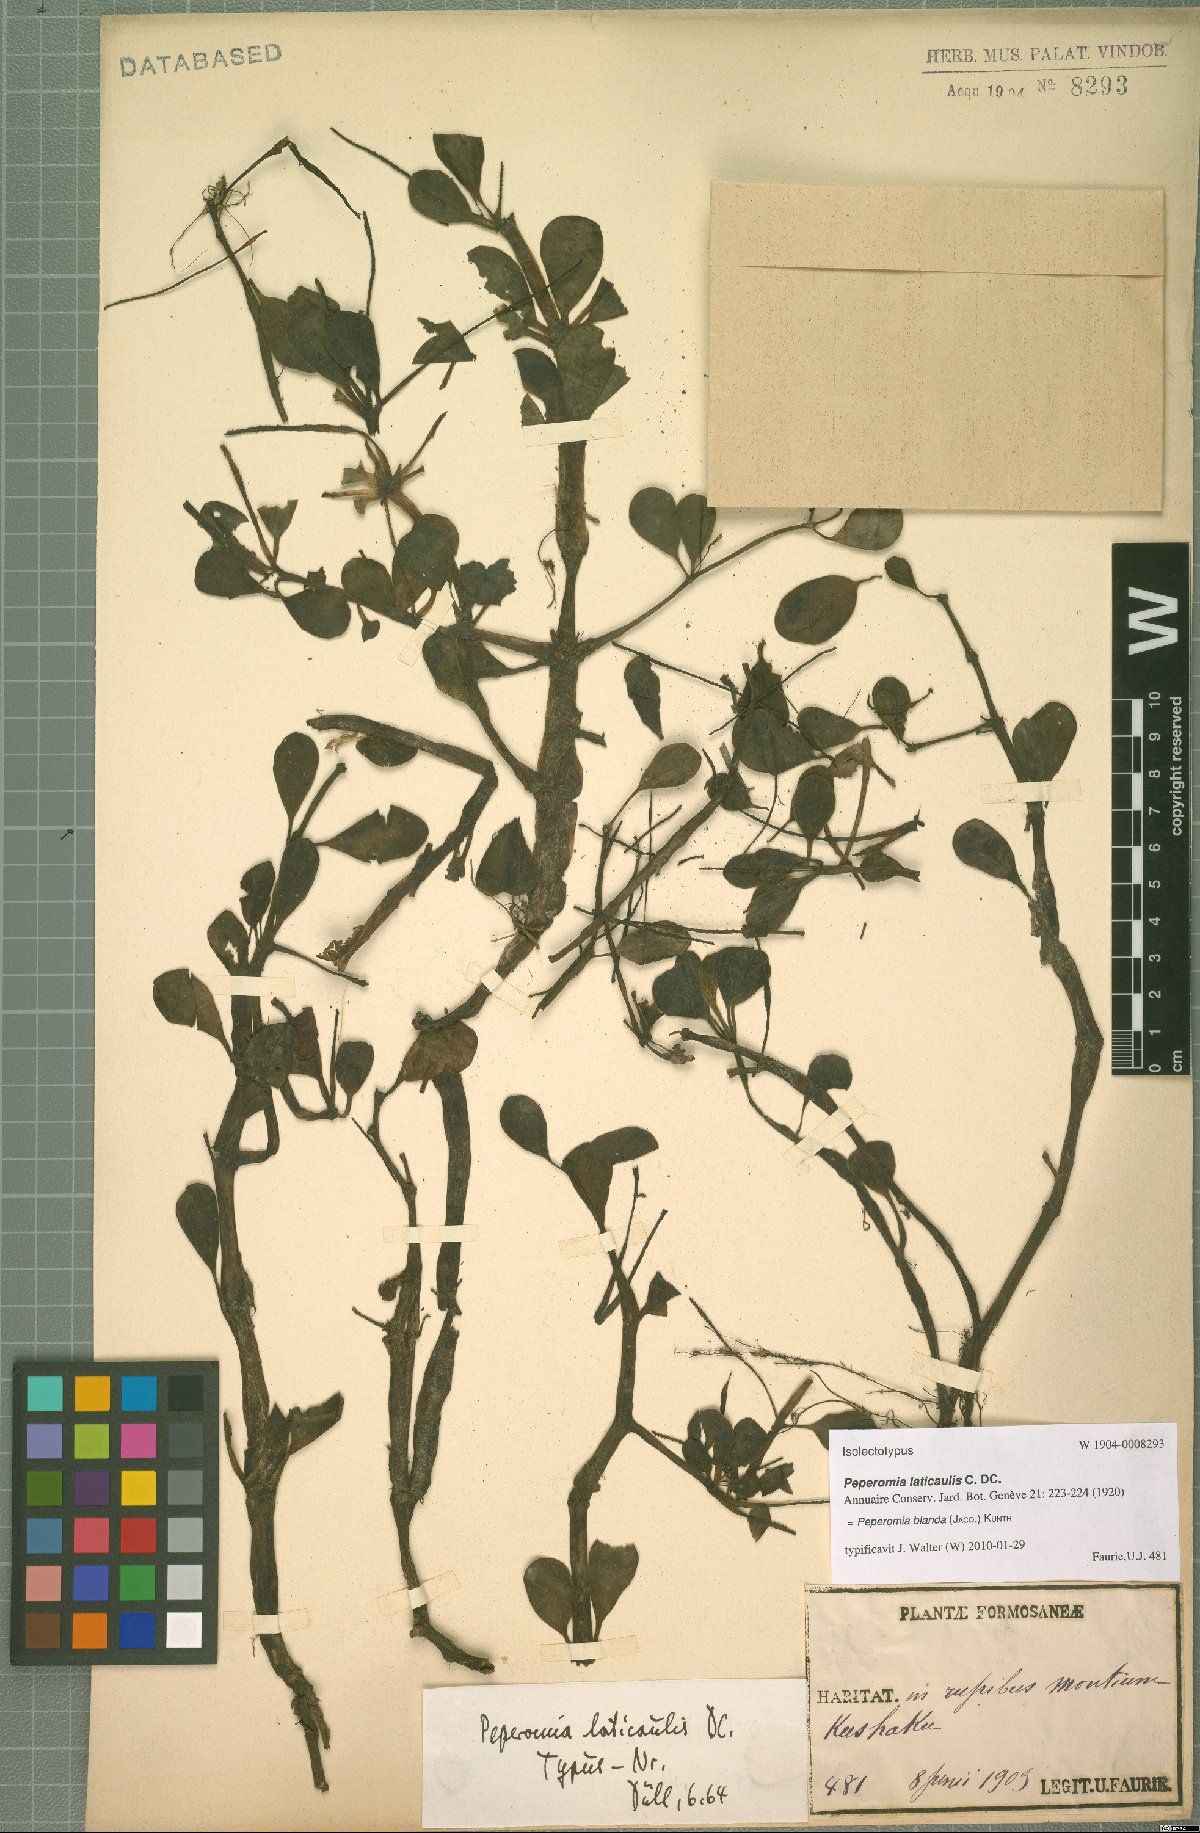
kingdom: Plantae
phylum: Tracheophyta
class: Magnoliopsida
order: Piperales
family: Piperaceae
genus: Peperomia
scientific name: Peperomia blanda
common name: Arid-land peperomia
